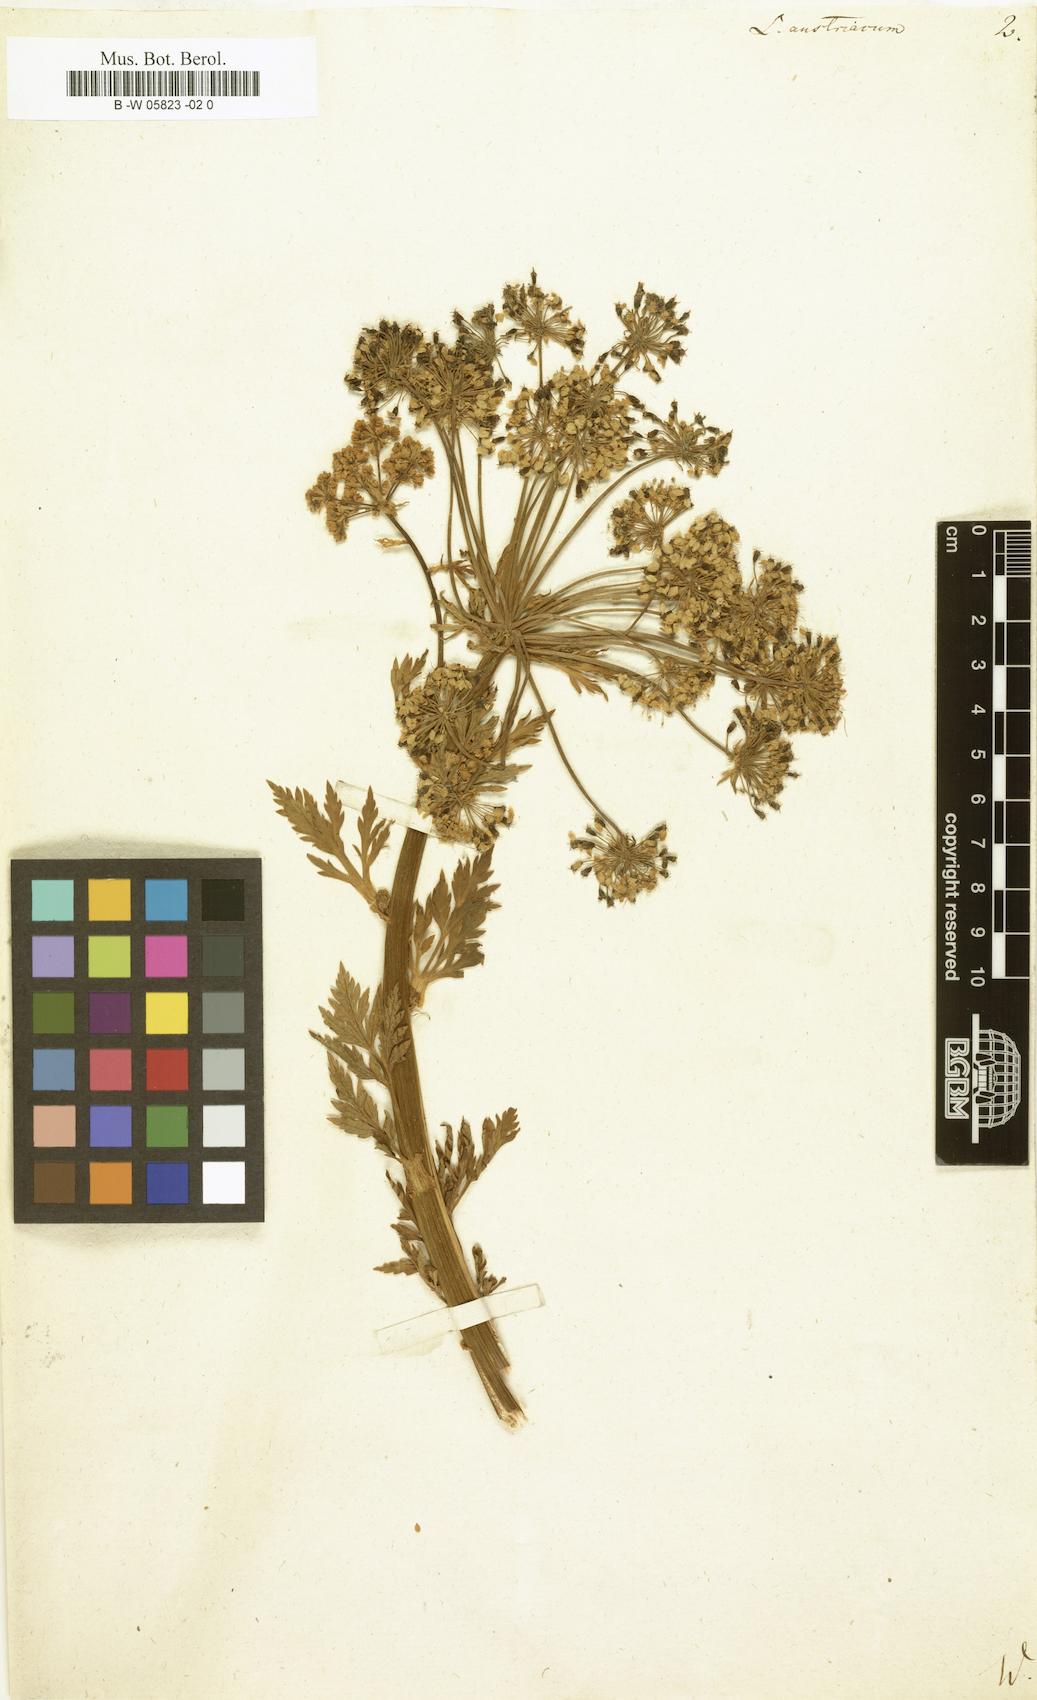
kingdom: Plantae
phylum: Tracheophyta
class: Magnoliopsida
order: Apiales
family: Apiaceae
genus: Pleurospermum
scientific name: Pleurospermum austriacum
